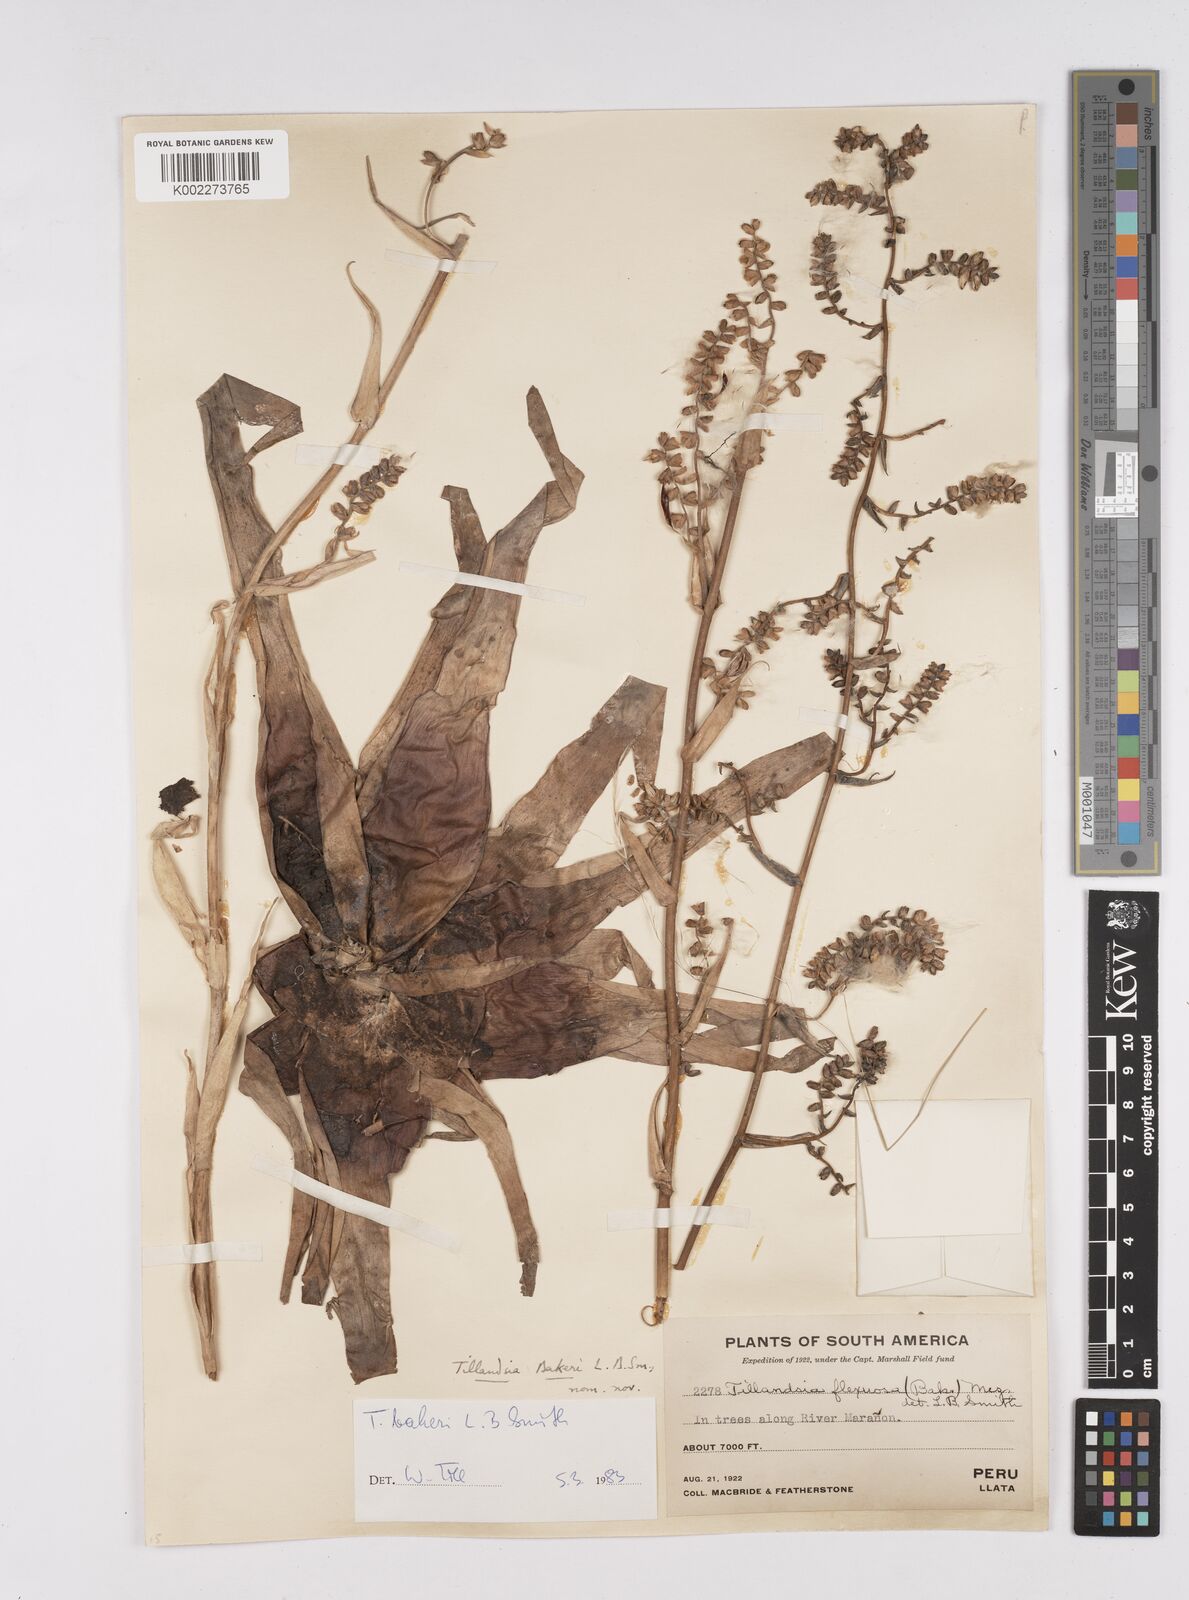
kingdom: Plantae
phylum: Tracheophyta
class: Liliopsida
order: Poales
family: Bromeliaceae
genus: Racinaea
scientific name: Racinaea flexuosa
